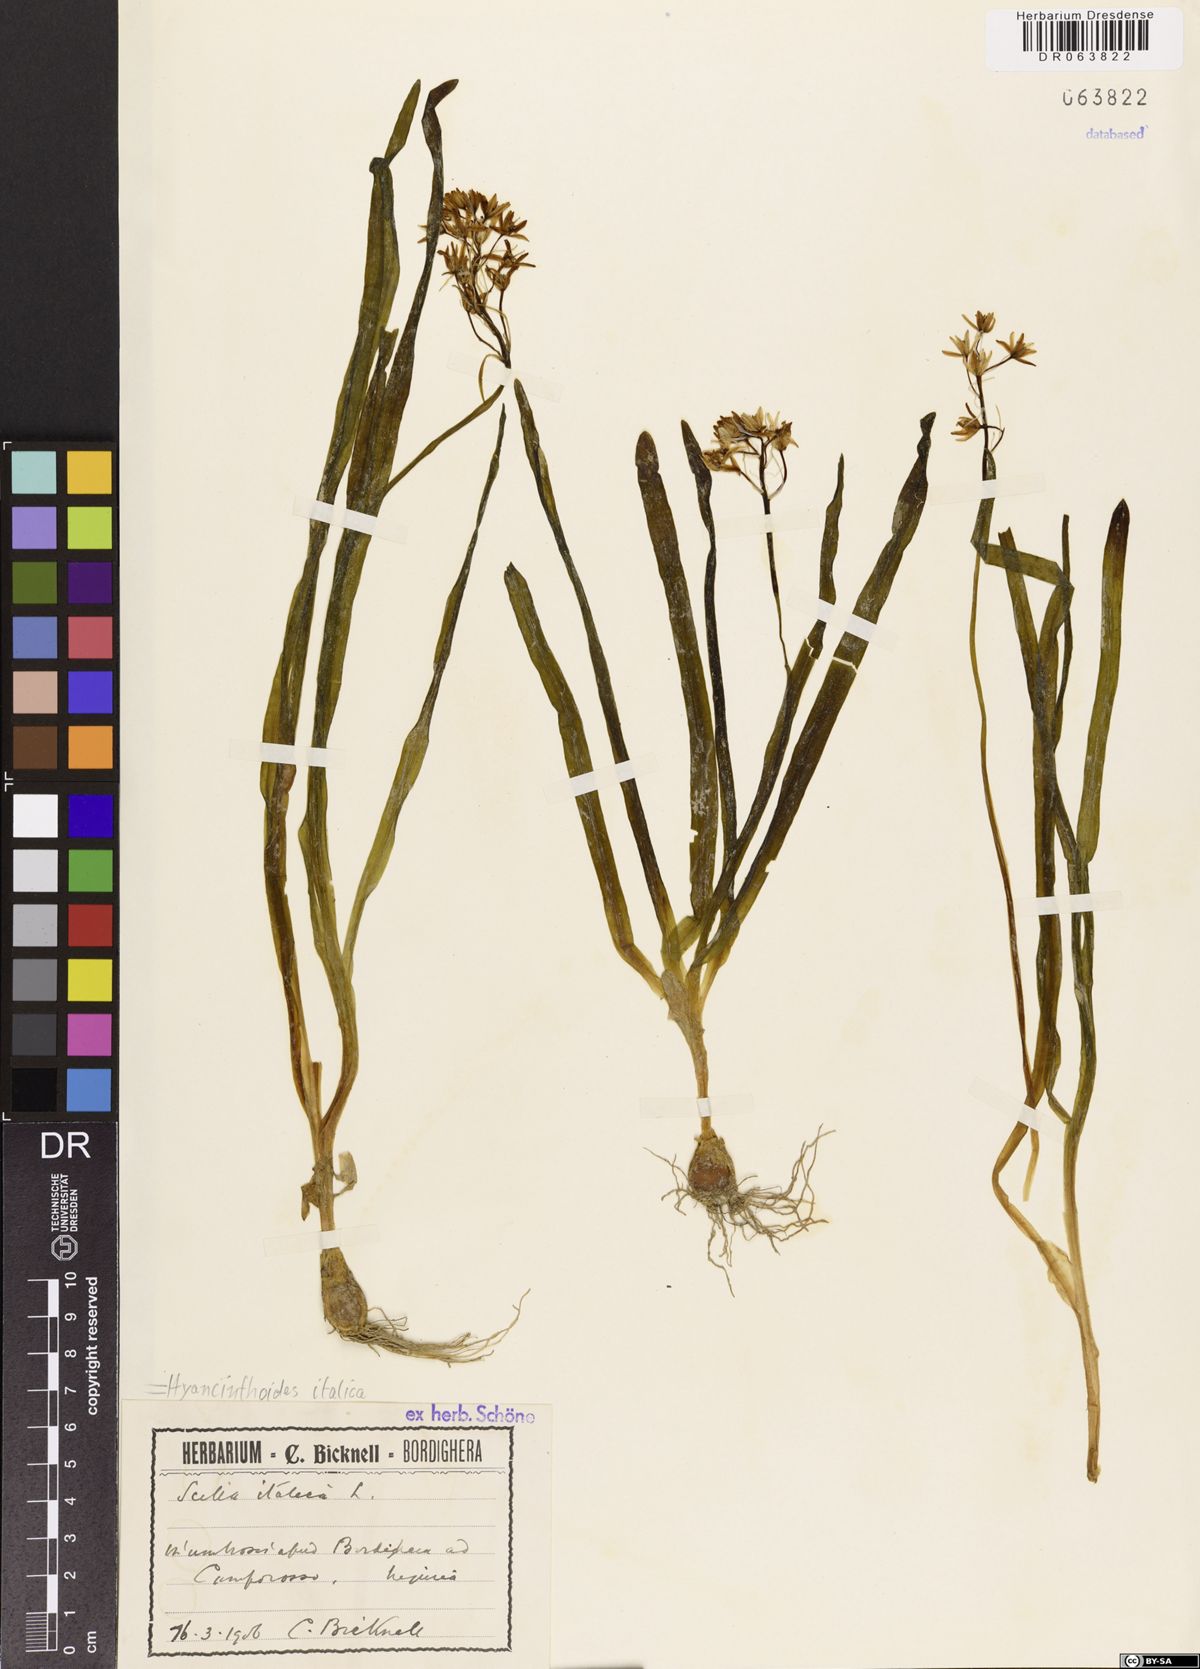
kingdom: Plantae
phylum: Tracheophyta
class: Liliopsida
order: Asparagales
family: Asparagaceae
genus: Hyacinthoides
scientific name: Hyacinthoides italica
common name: Italian bluebell
